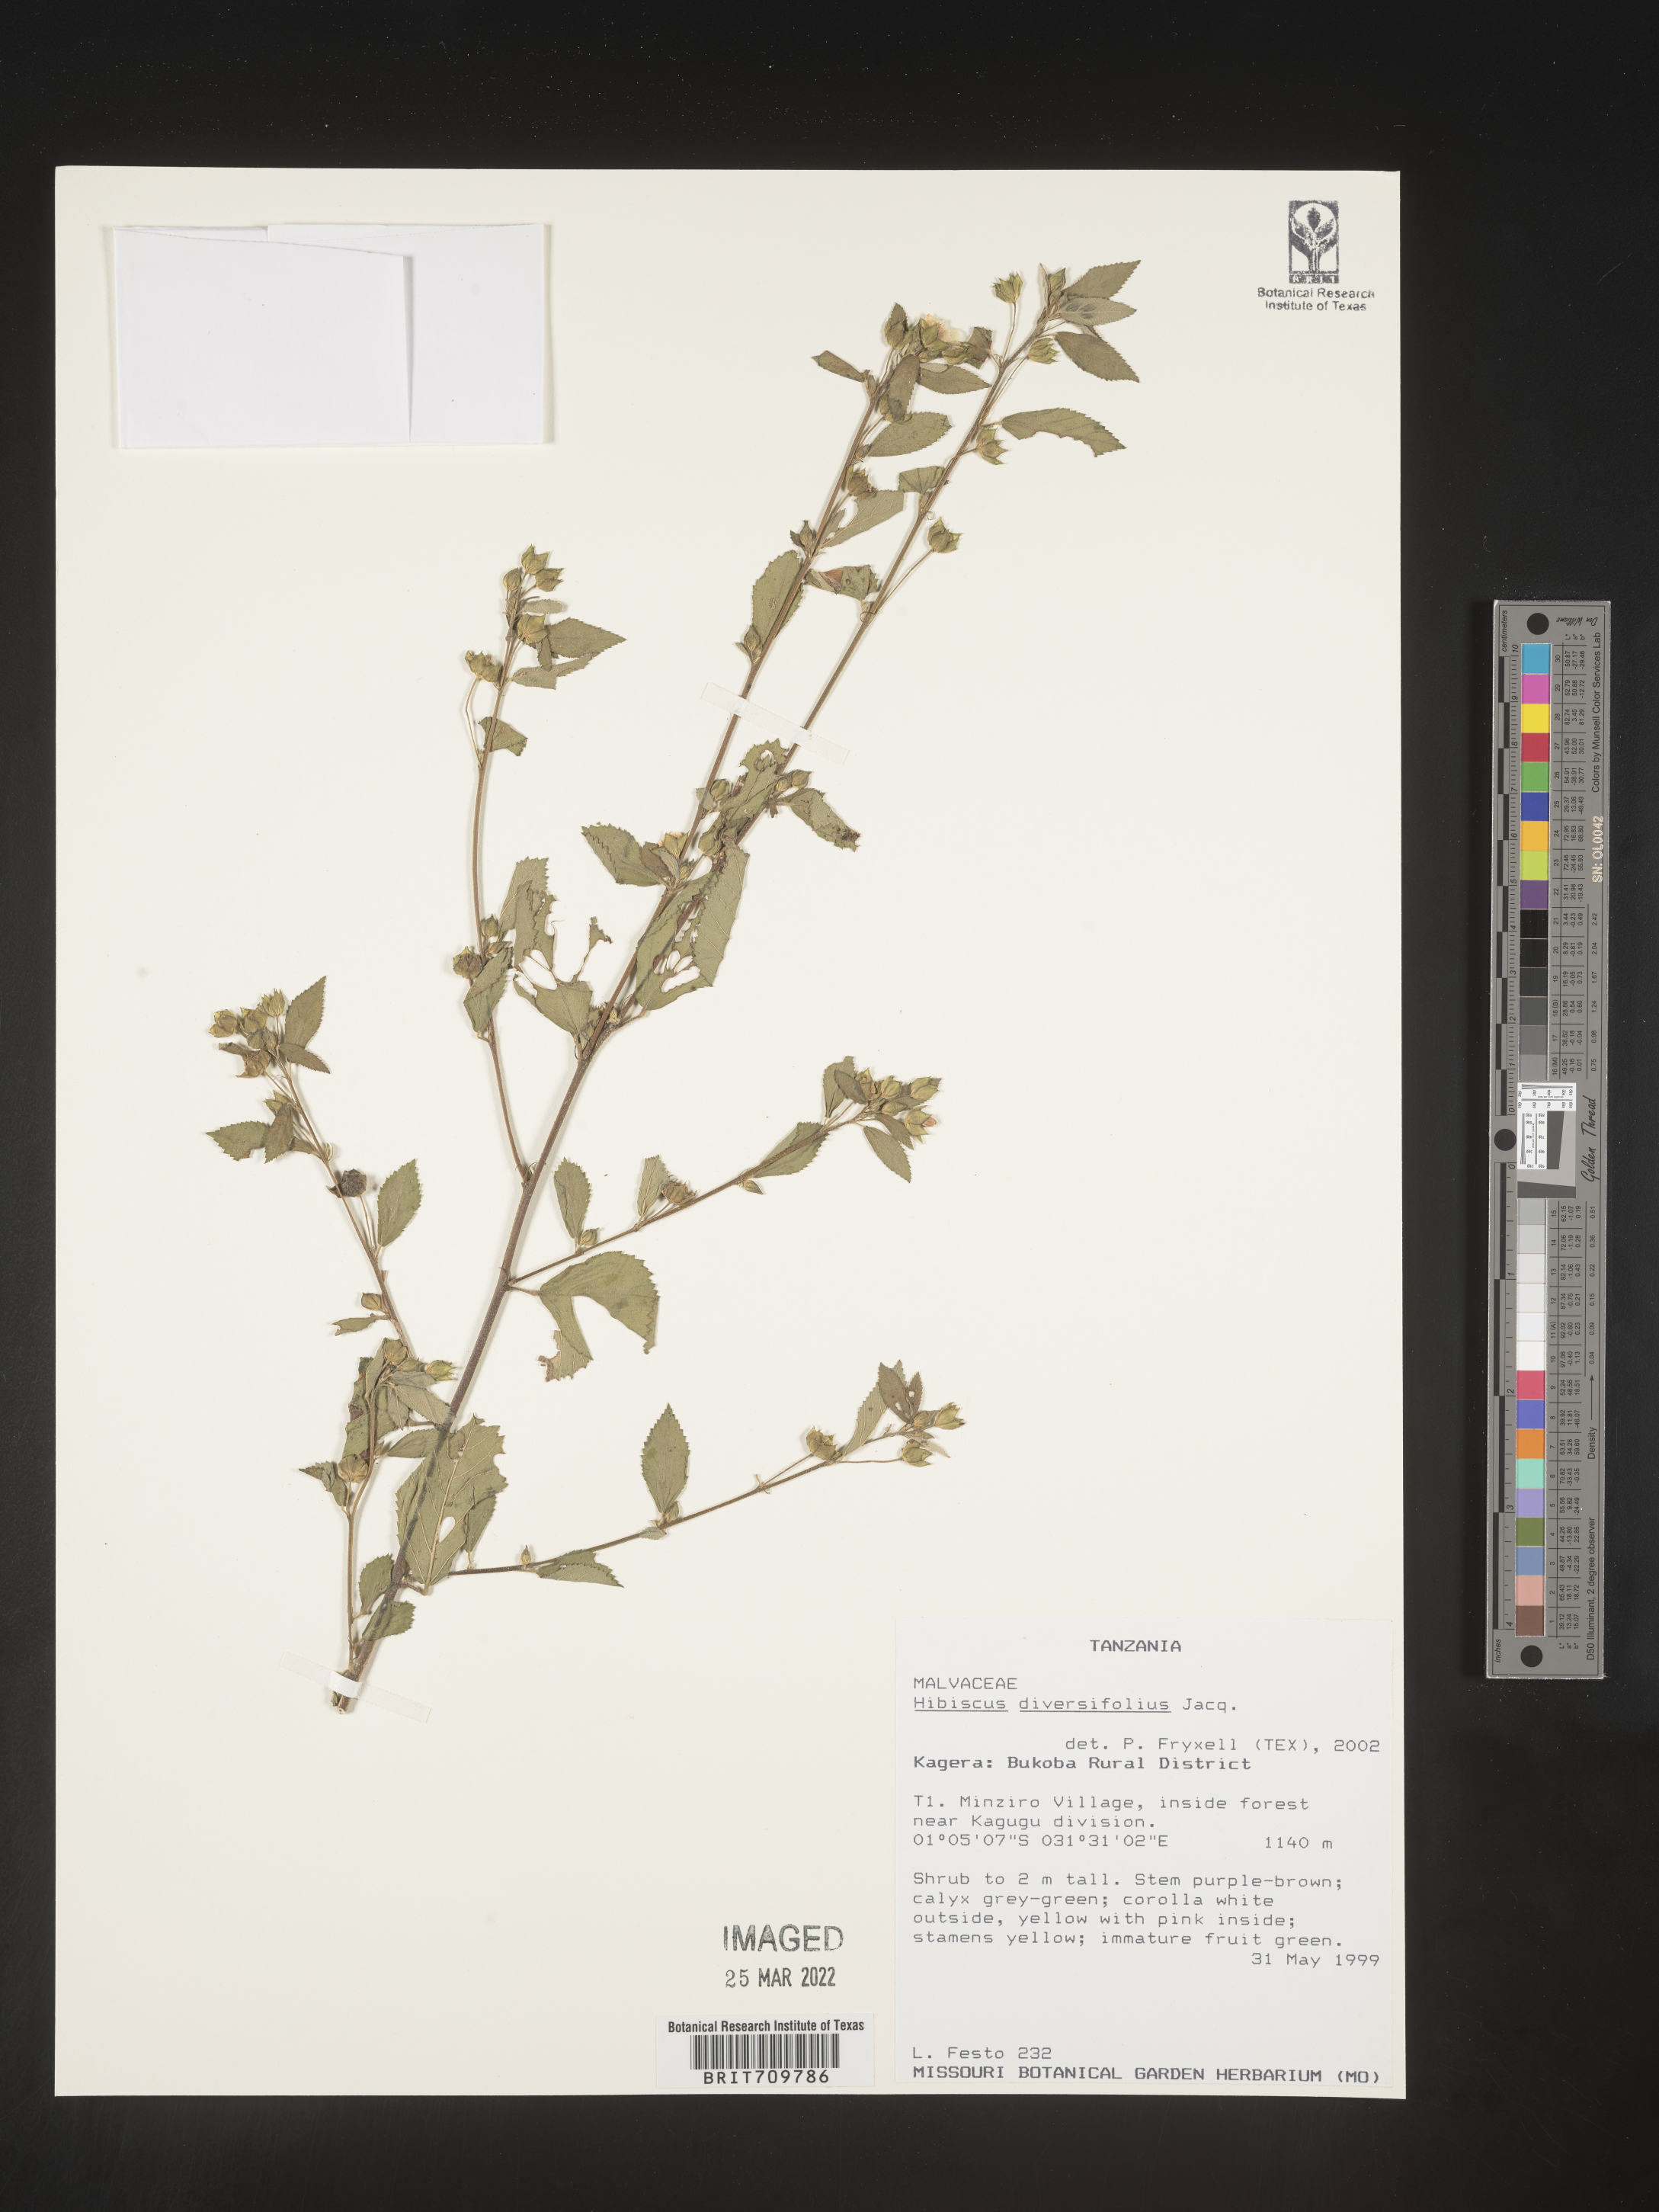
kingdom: Plantae
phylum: Tracheophyta
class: Magnoliopsida
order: Malvales
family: Malvaceae
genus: Hibiscus
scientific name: Hibiscus
